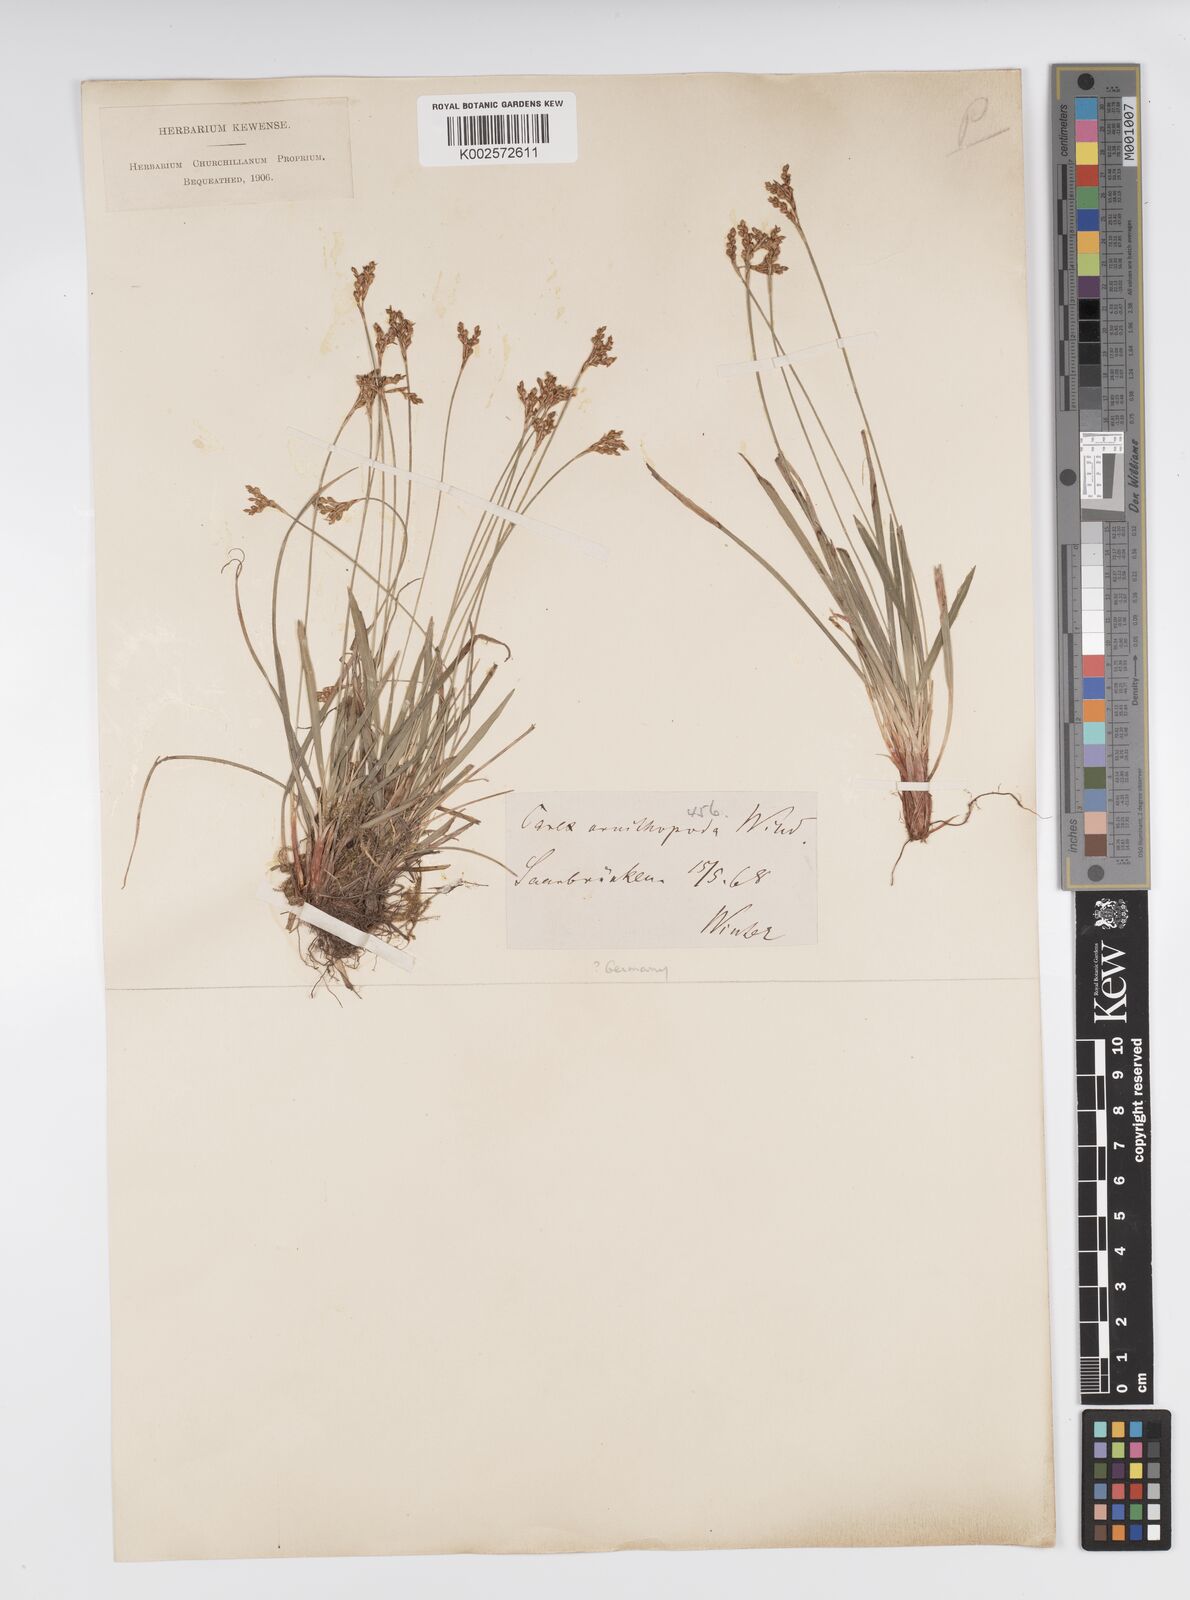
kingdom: Plantae
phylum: Tracheophyta
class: Liliopsida
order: Poales
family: Cyperaceae
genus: Carex
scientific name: Carex ornithopoda
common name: Bird's-foot sedge
